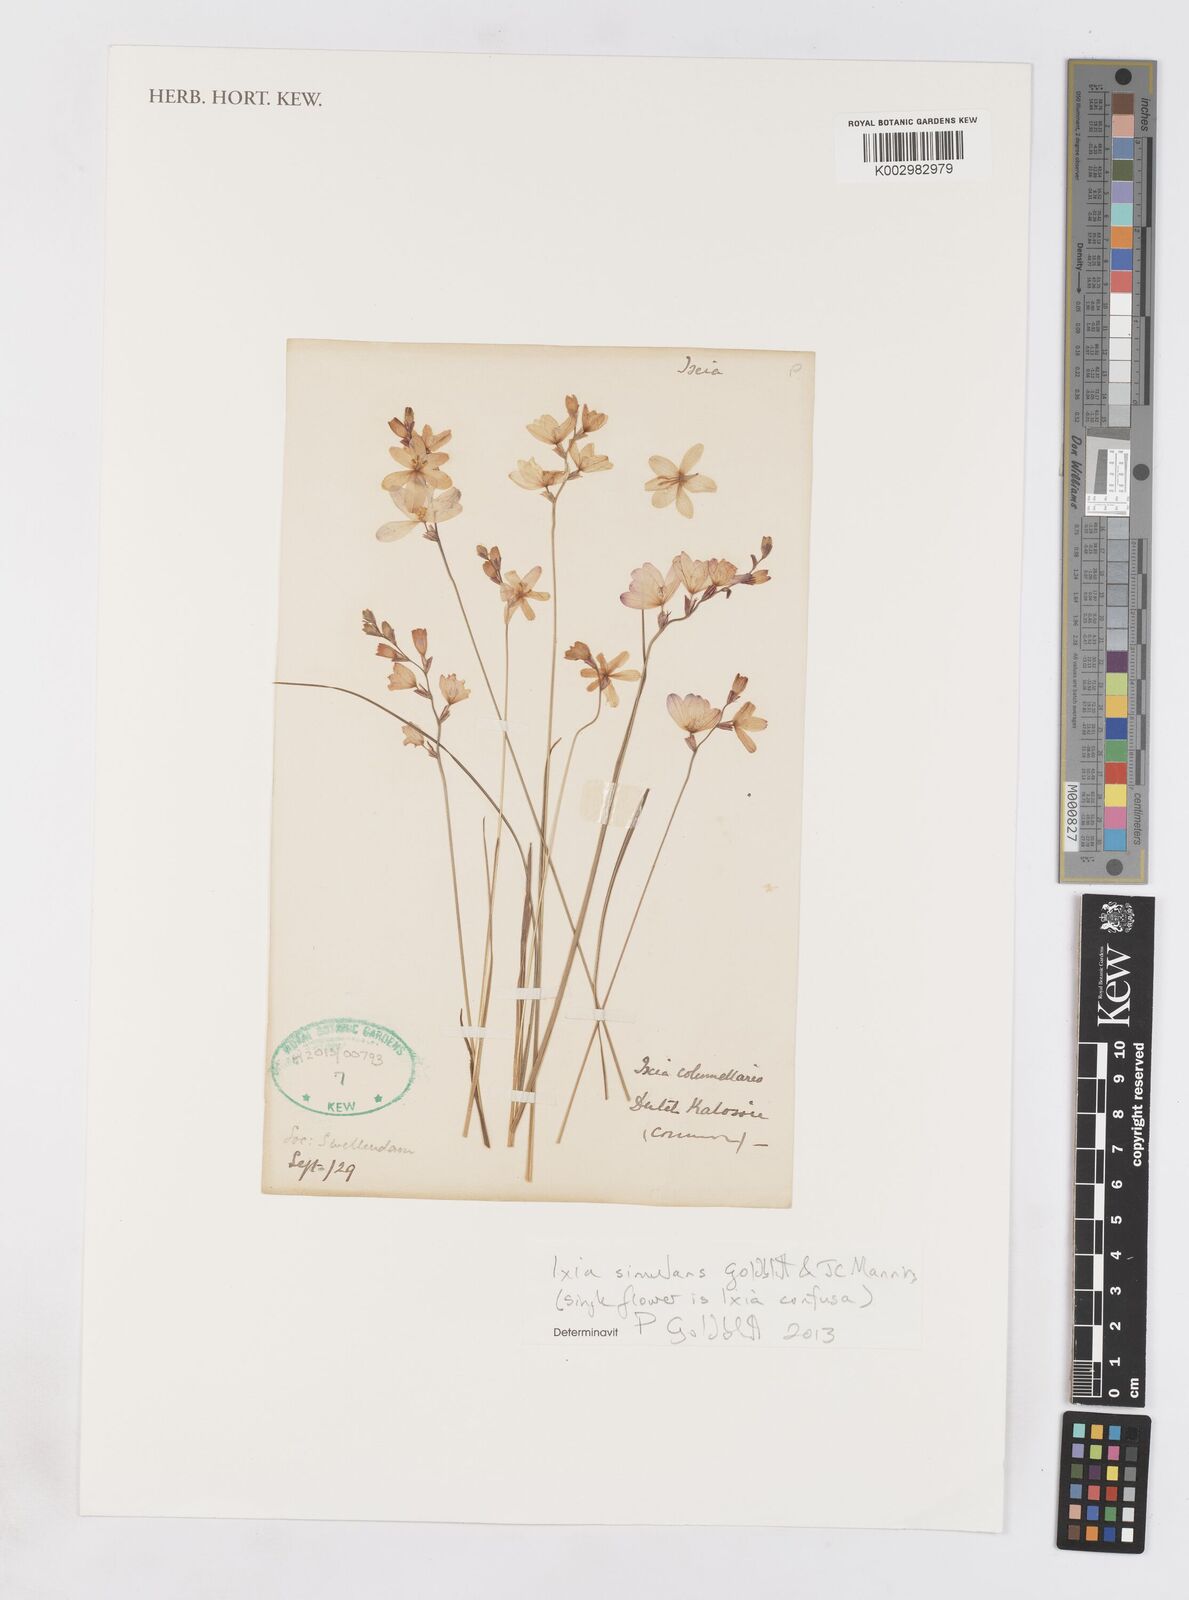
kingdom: Plantae
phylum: Tracheophyta
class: Liliopsida
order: Asparagales
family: Iridaceae
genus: Ixia
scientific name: Ixia simulans
